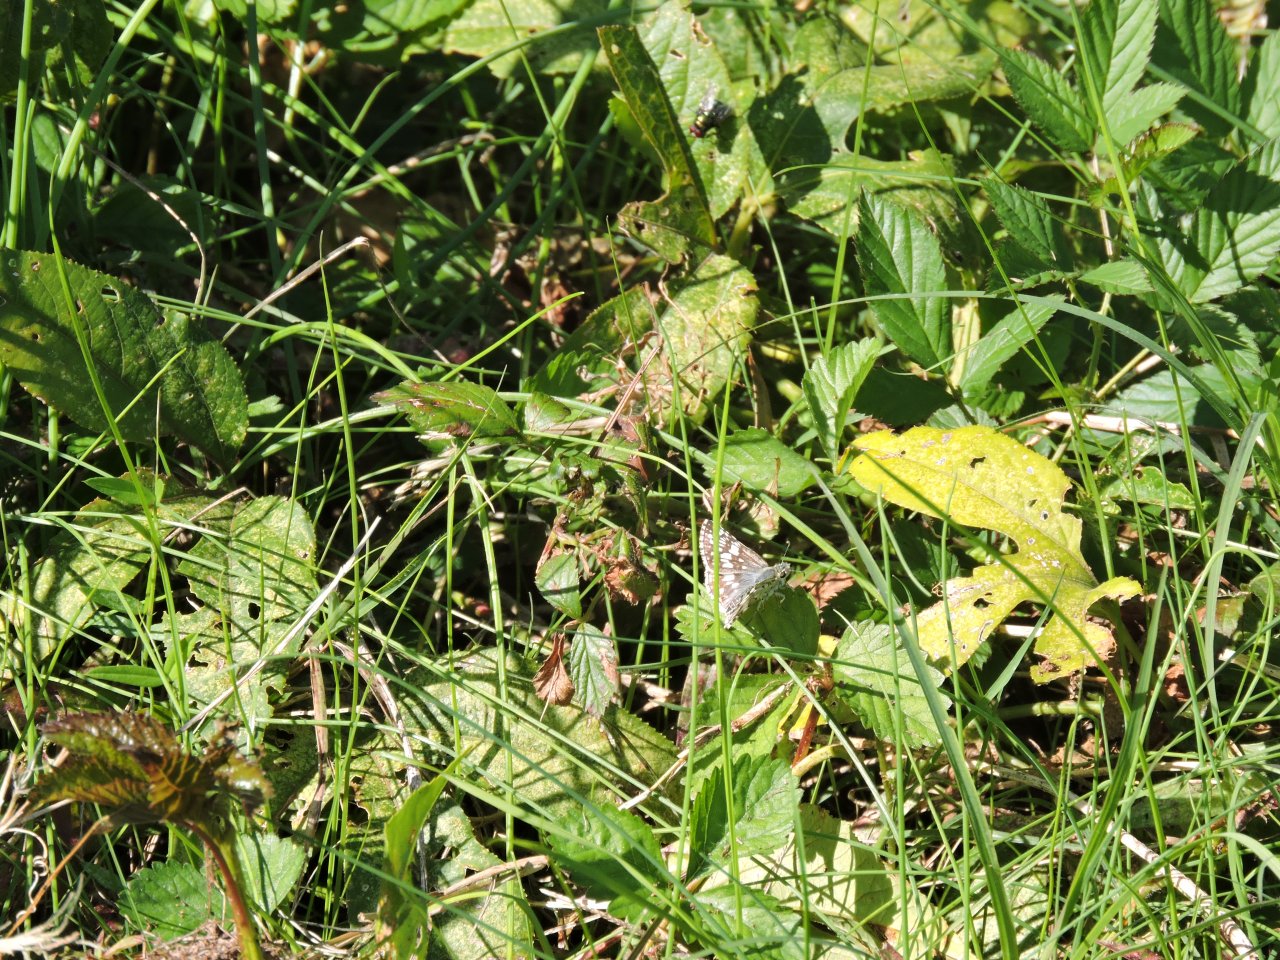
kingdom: Animalia
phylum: Arthropoda
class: Insecta
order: Lepidoptera
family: Hesperiidae
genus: Pyrgus
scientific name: Pyrgus
